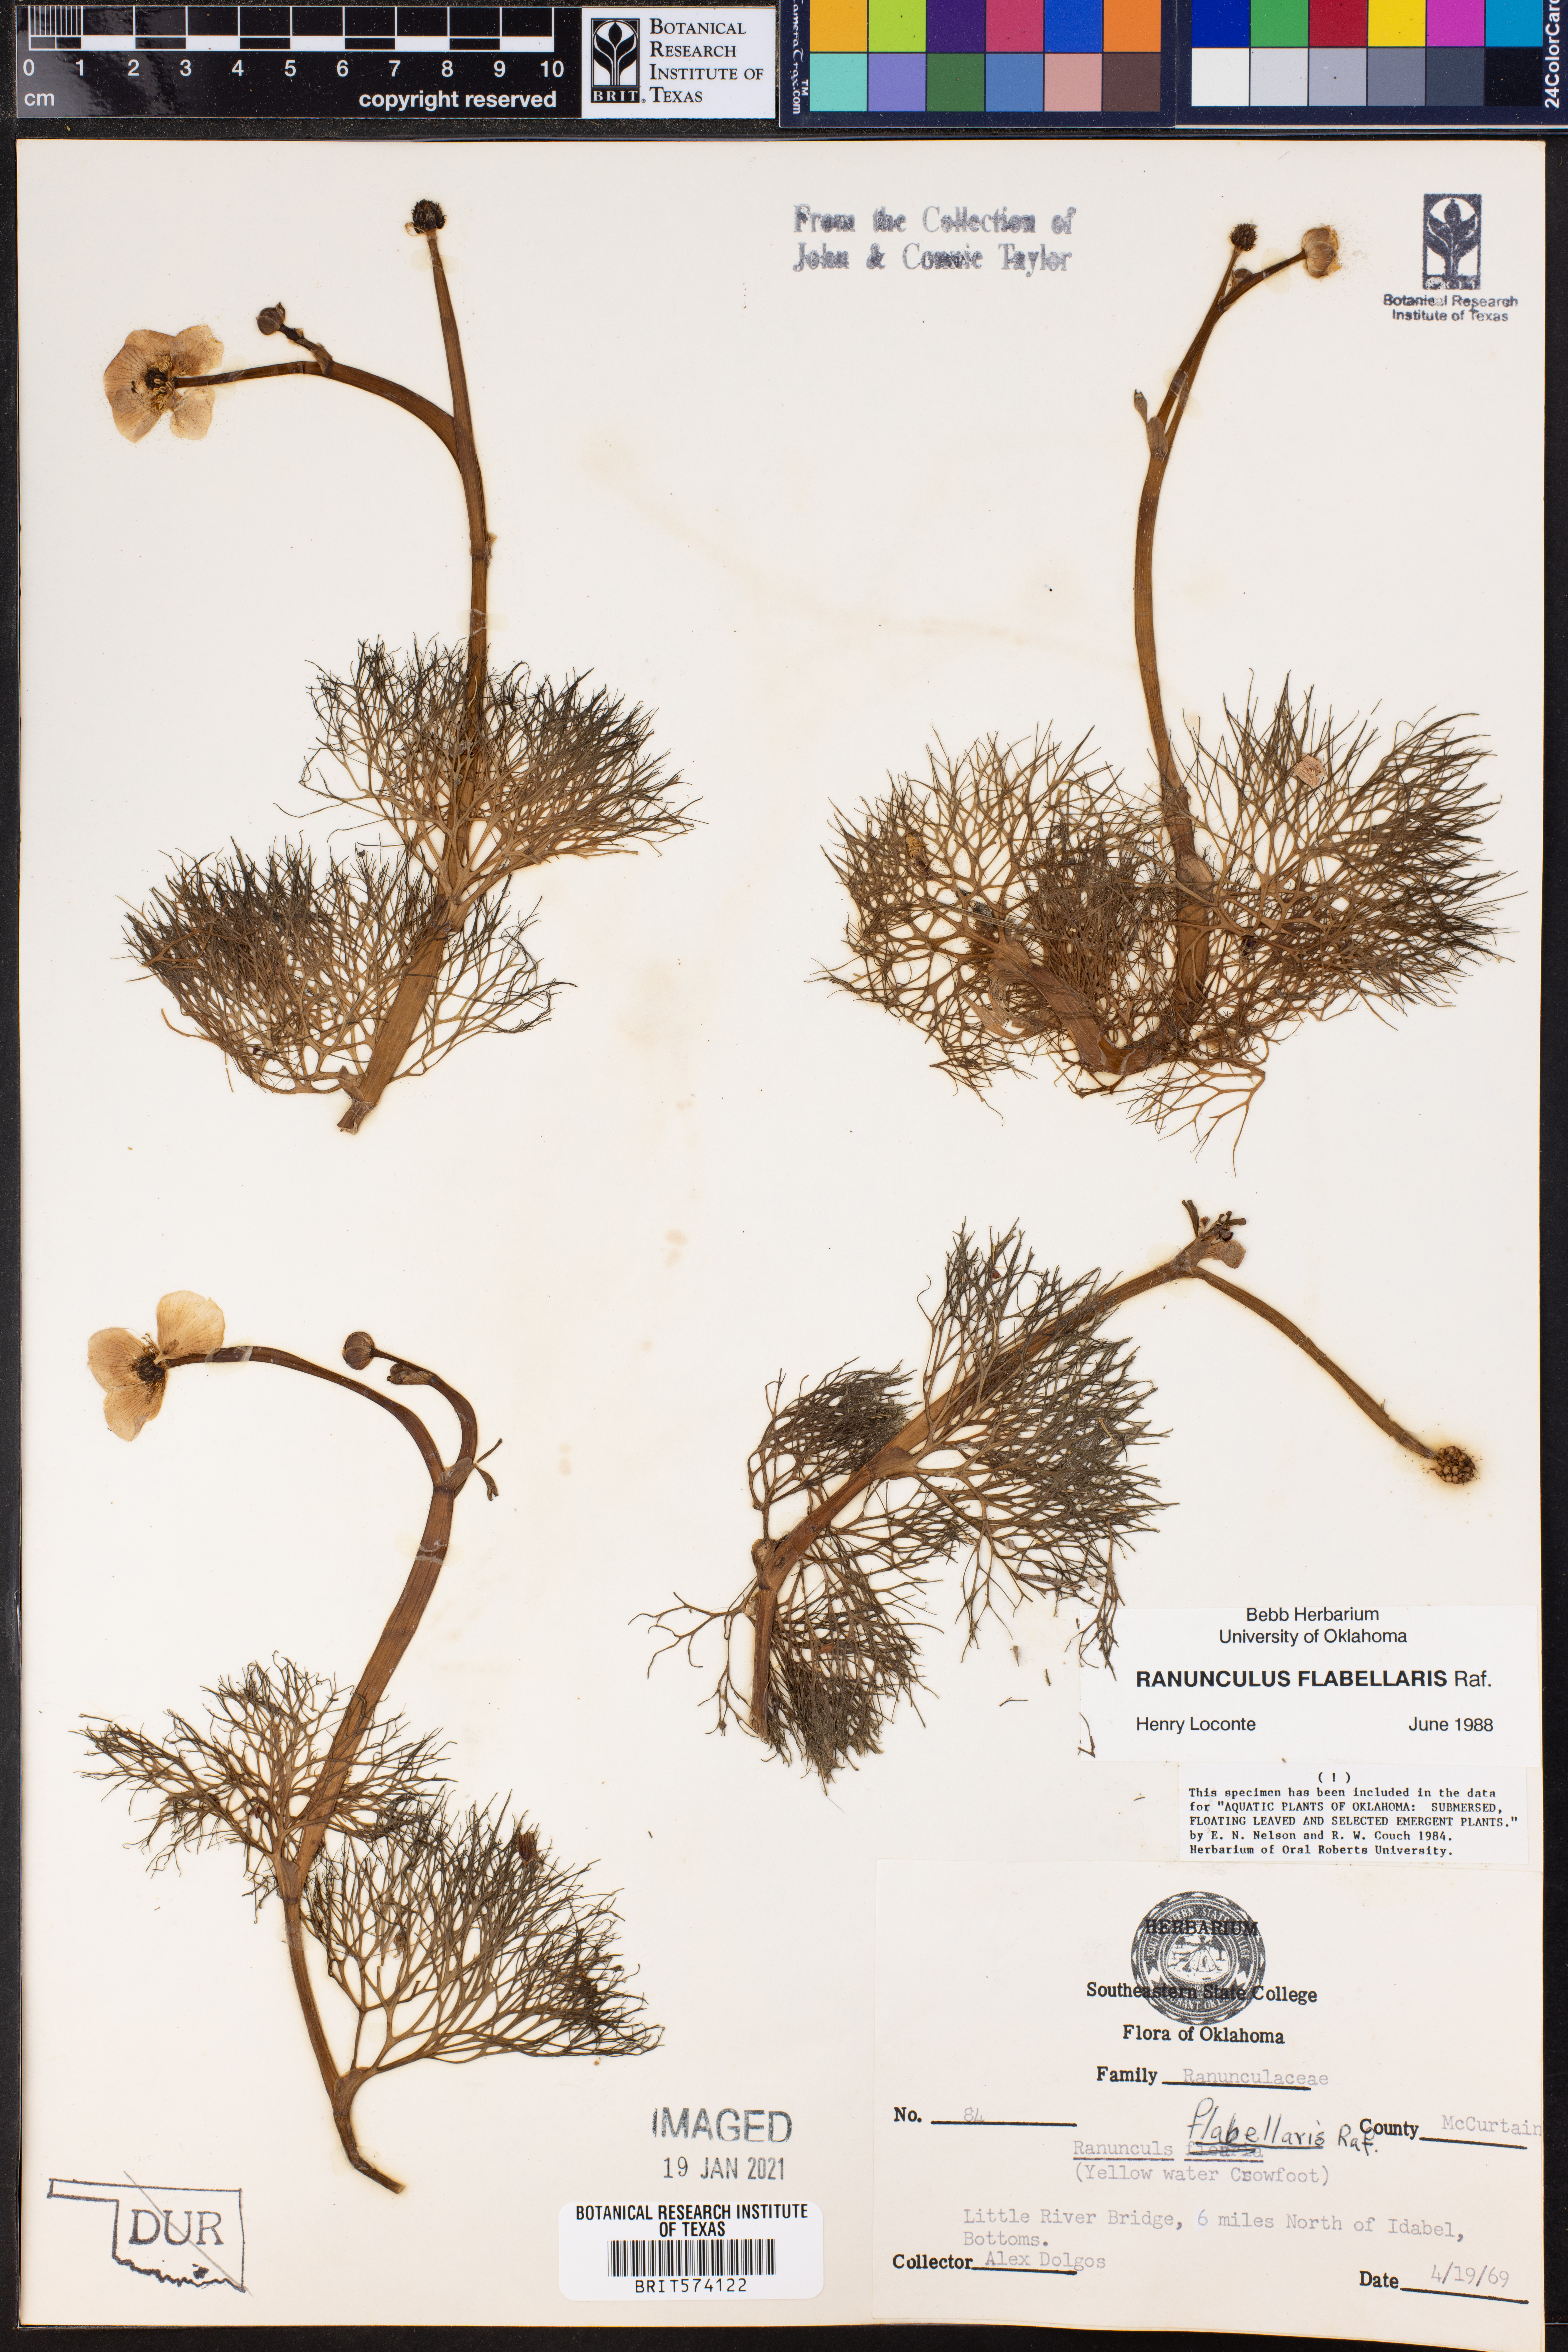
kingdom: Plantae
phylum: Tracheophyta
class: Magnoliopsida
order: Ranunculales
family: Ranunculaceae
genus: Ranunculus
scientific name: Ranunculus flabellaris
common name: Yellow water-crowfoot
